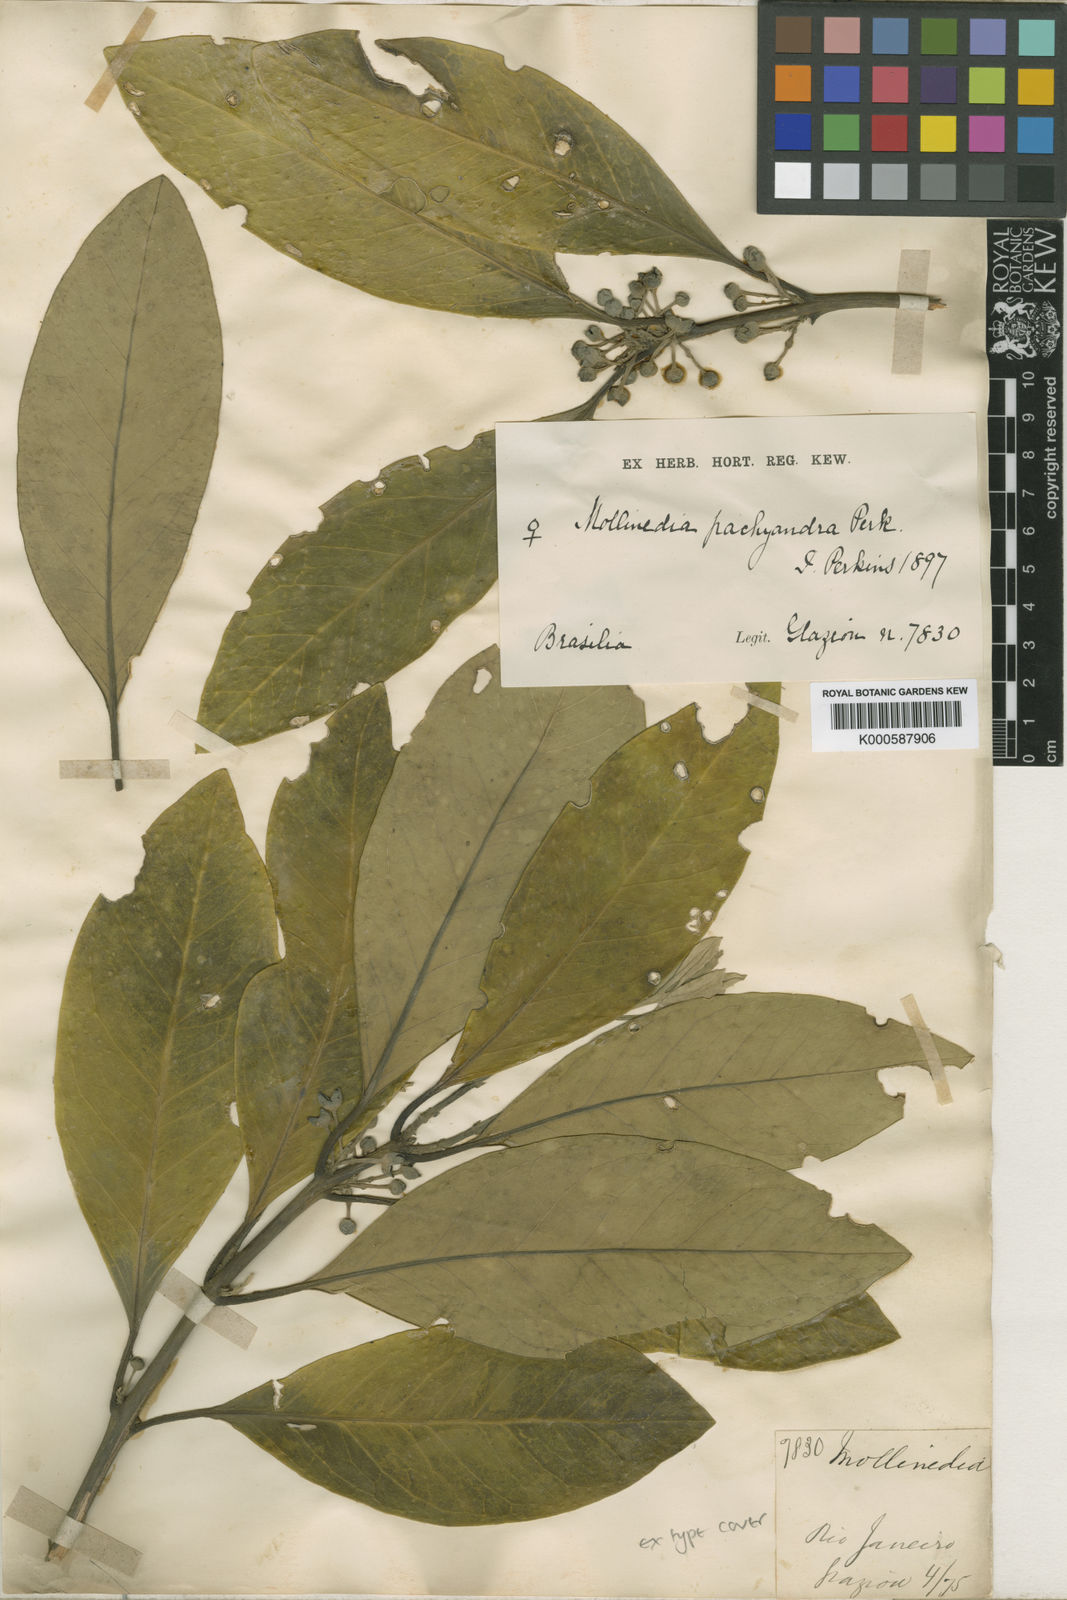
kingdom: Plantae
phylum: Tracheophyta
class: Magnoliopsida
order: Laurales
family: Monimiaceae
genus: Mollinedia
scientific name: Mollinedia pachysandra
